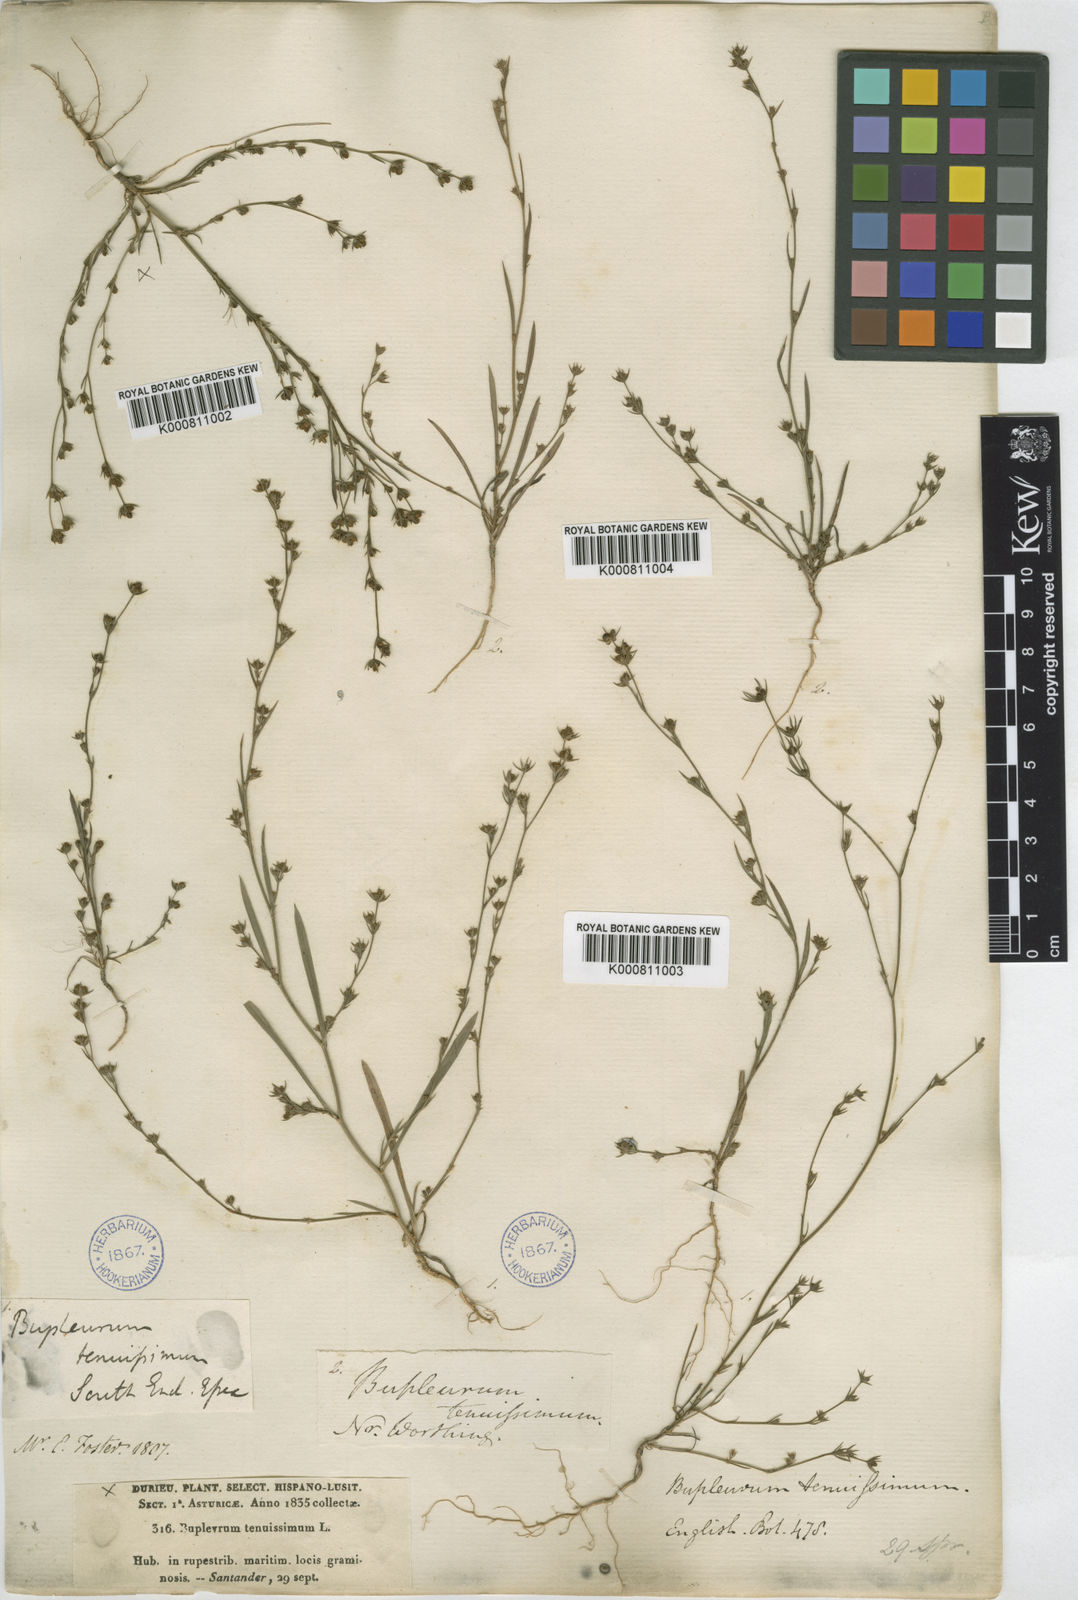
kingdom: Plantae
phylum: Tracheophyta
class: Magnoliopsida
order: Apiales
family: Apiaceae
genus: Bupleurum
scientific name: Bupleurum tenuissimum
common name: Slender hare's-ear
